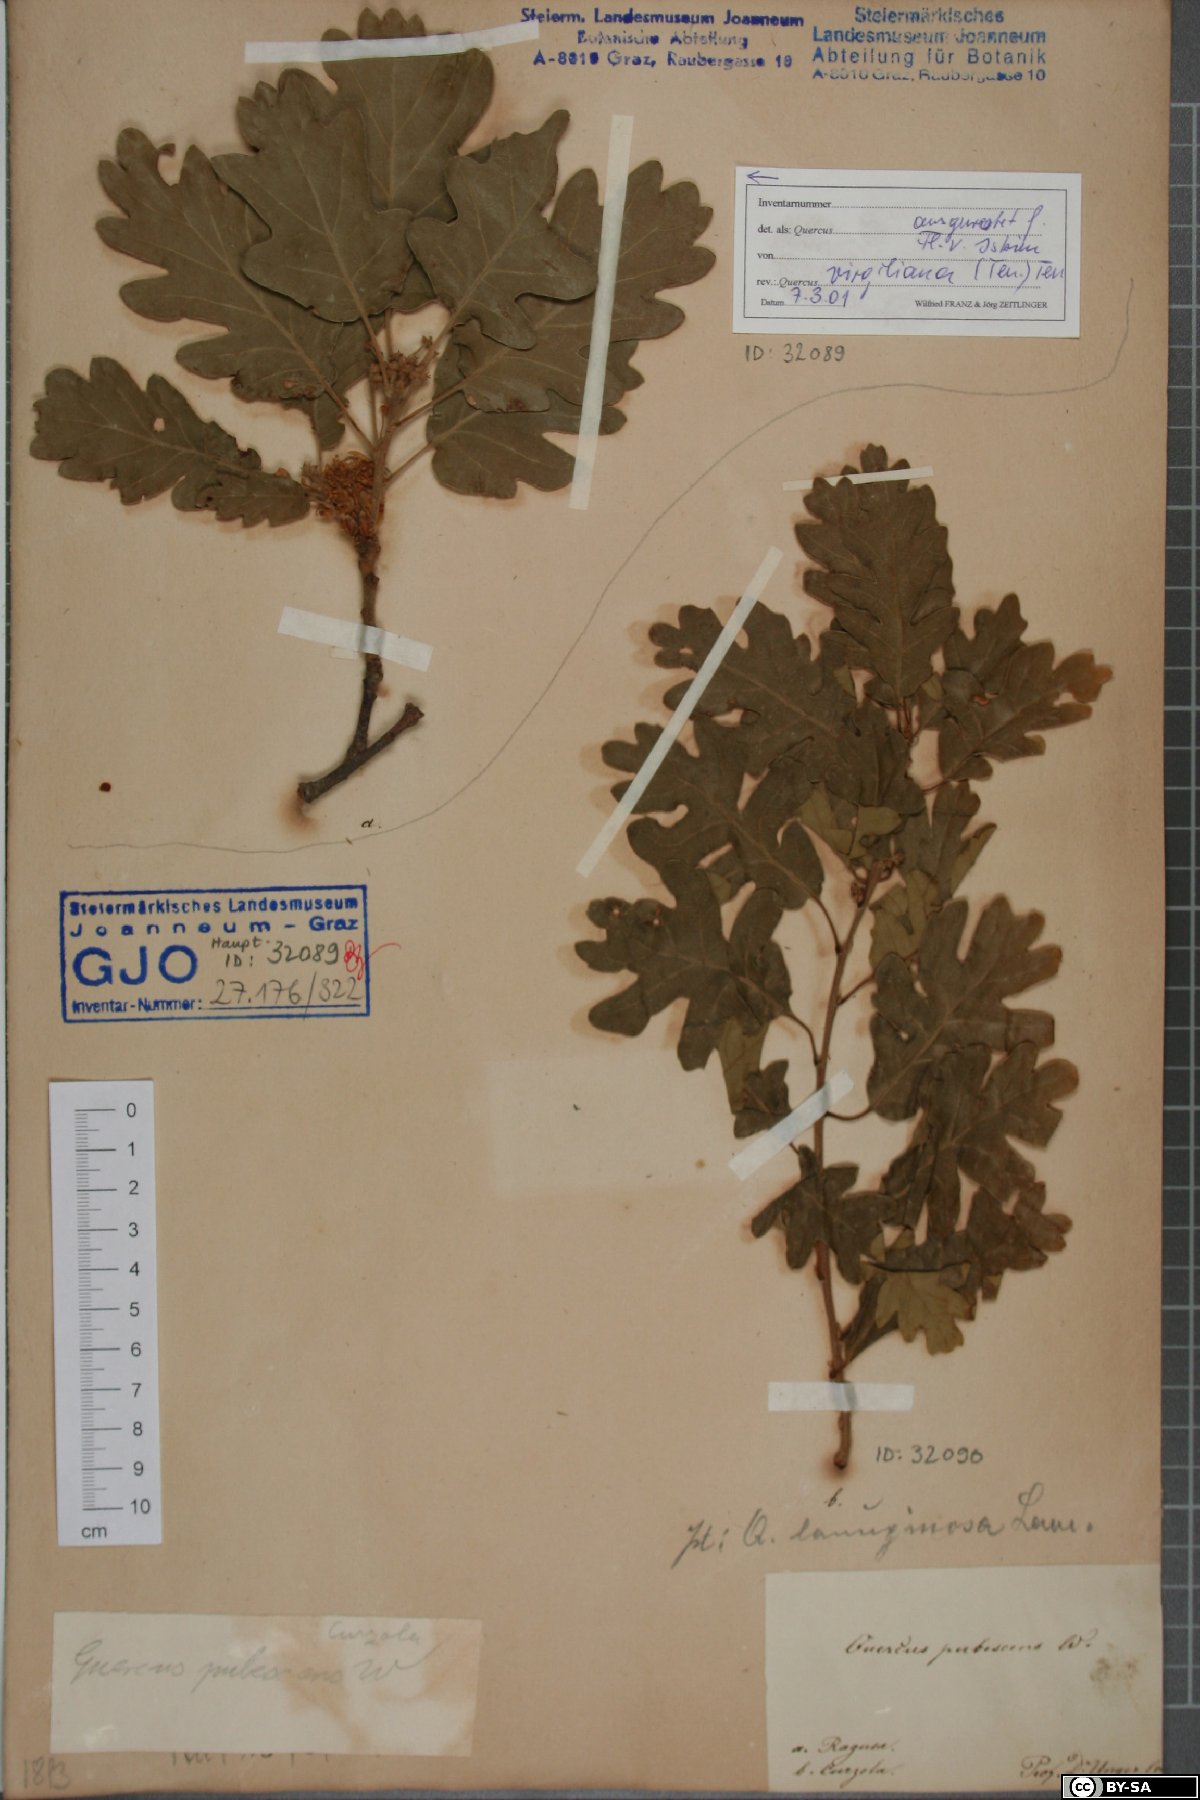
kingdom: Plantae
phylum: Tracheophyta
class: Magnoliopsida
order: Fagales
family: Fagaceae
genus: Quercus
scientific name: Quercus pubescens
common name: Downy oak
